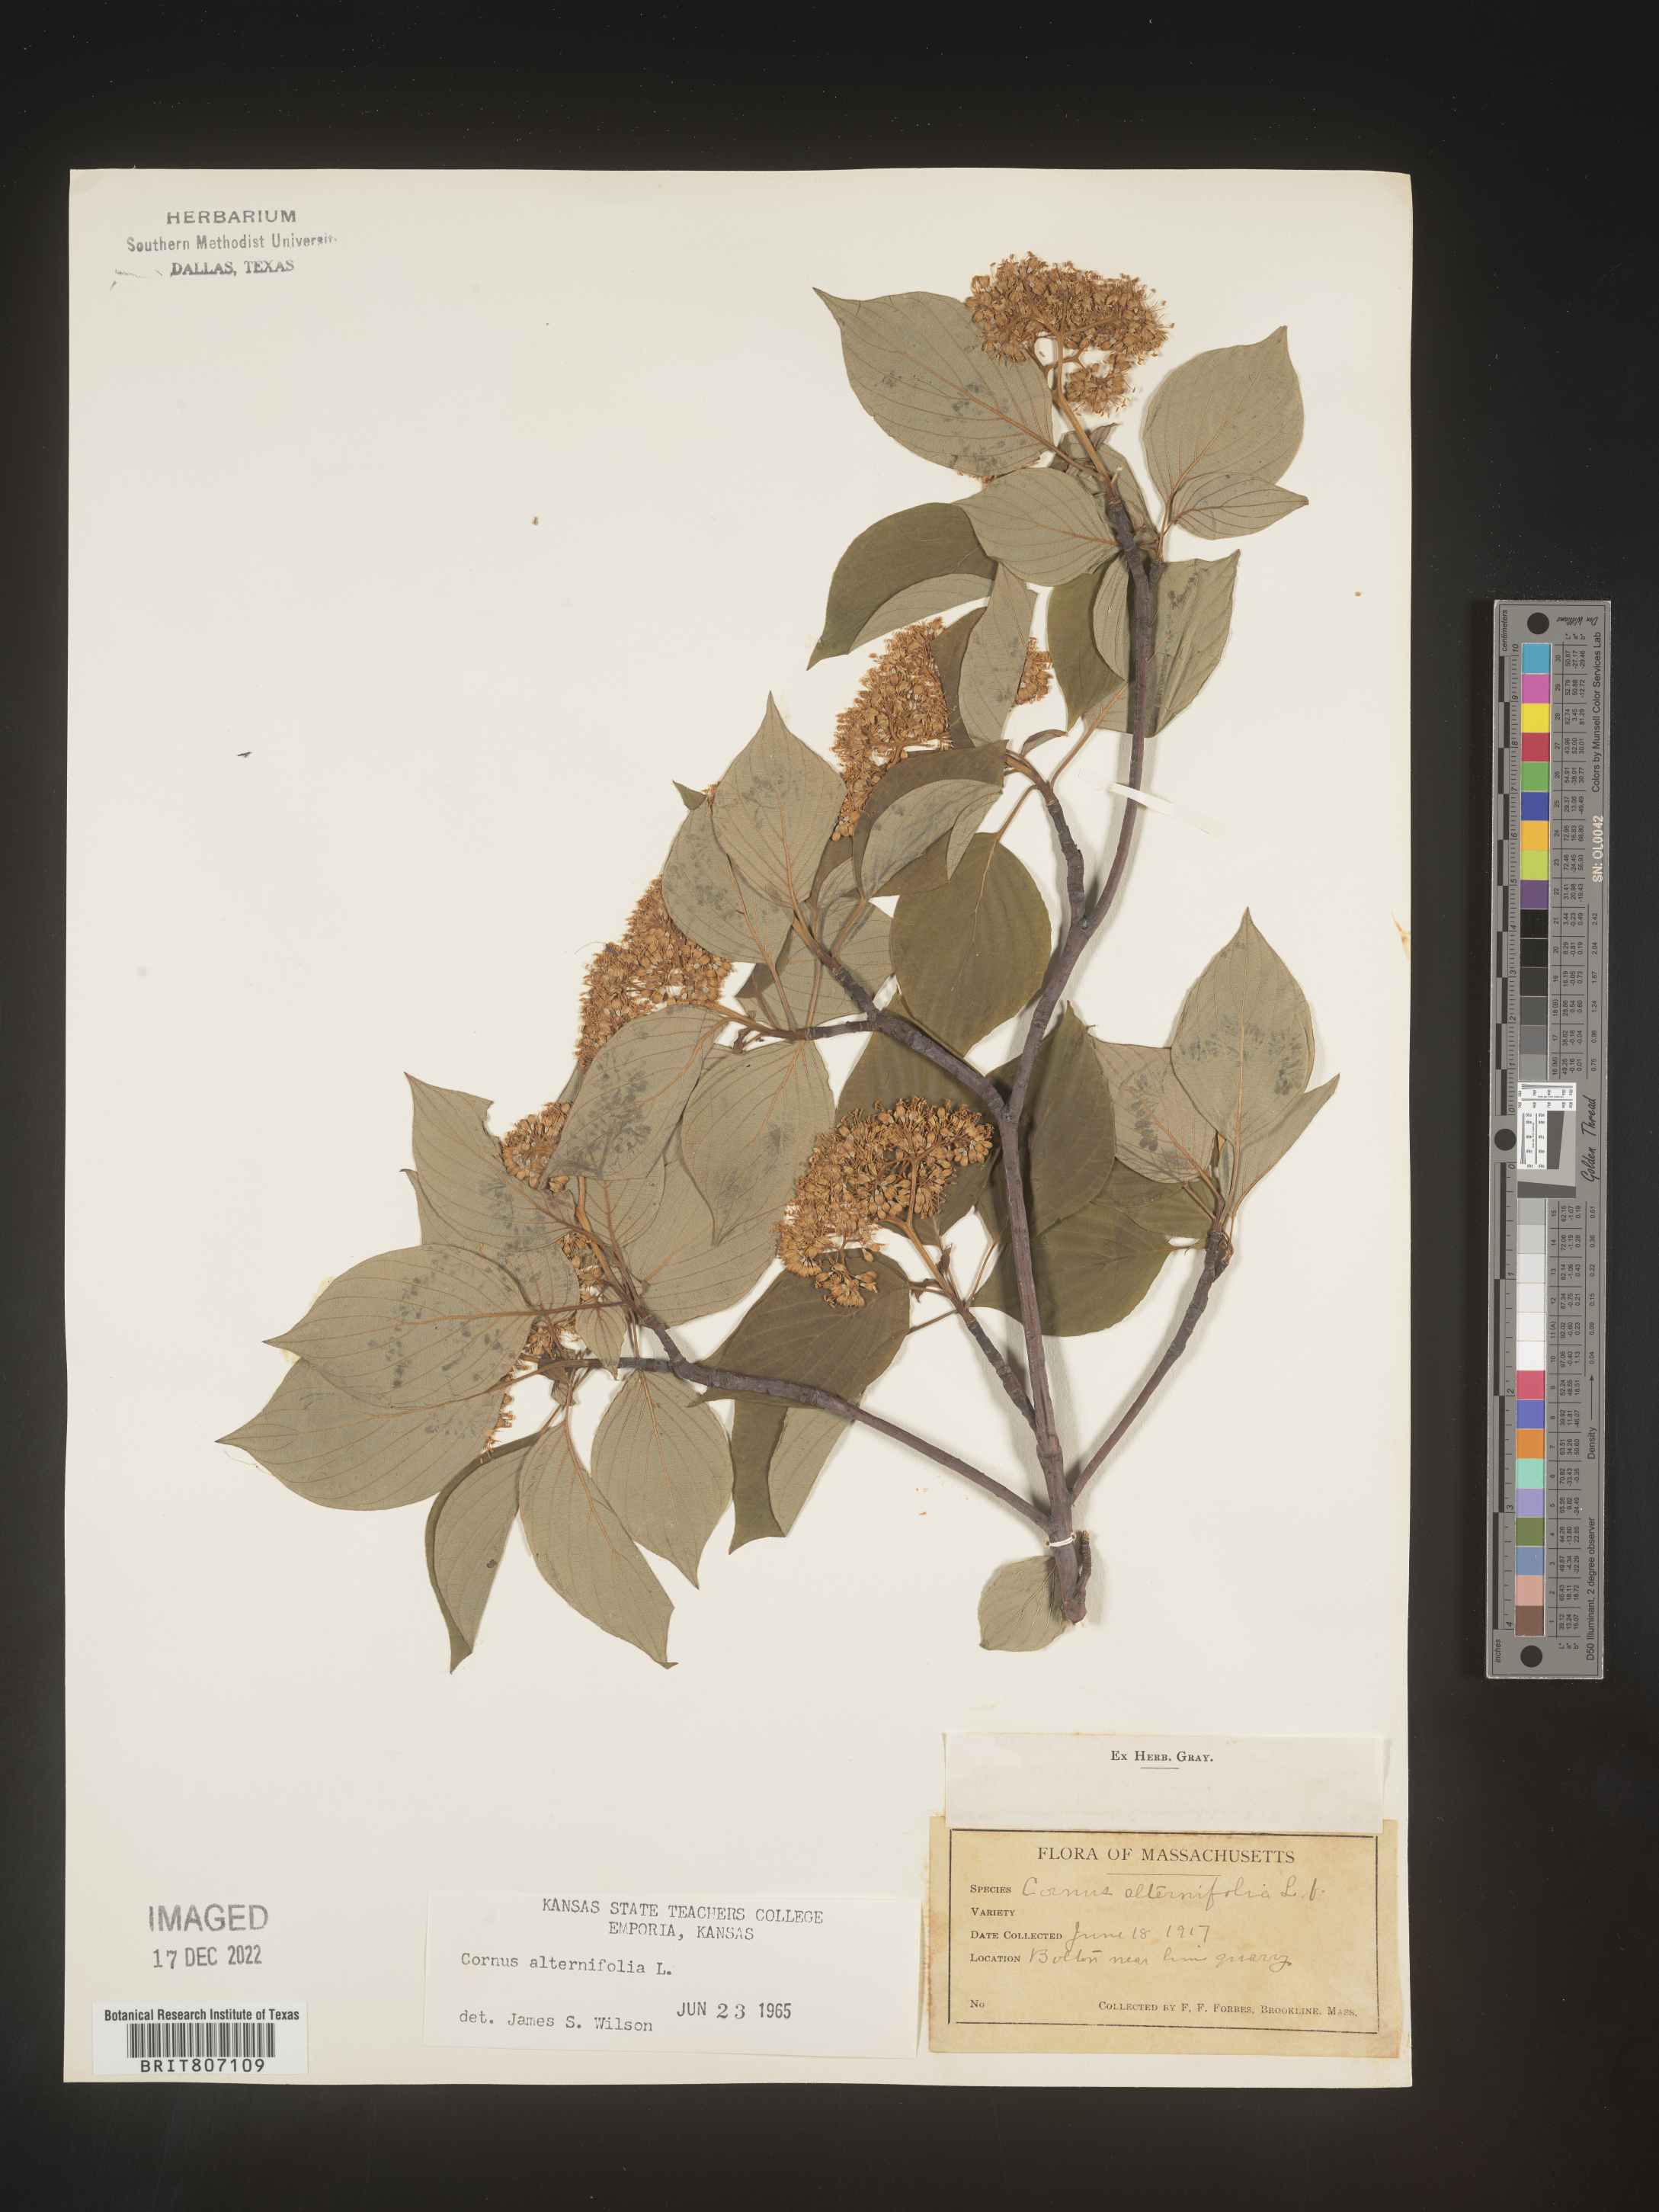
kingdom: Plantae
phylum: Tracheophyta
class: Magnoliopsida
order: Cornales
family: Cornaceae
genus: Cornus
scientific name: Cornus alternifolia
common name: Pagoda dogwood
